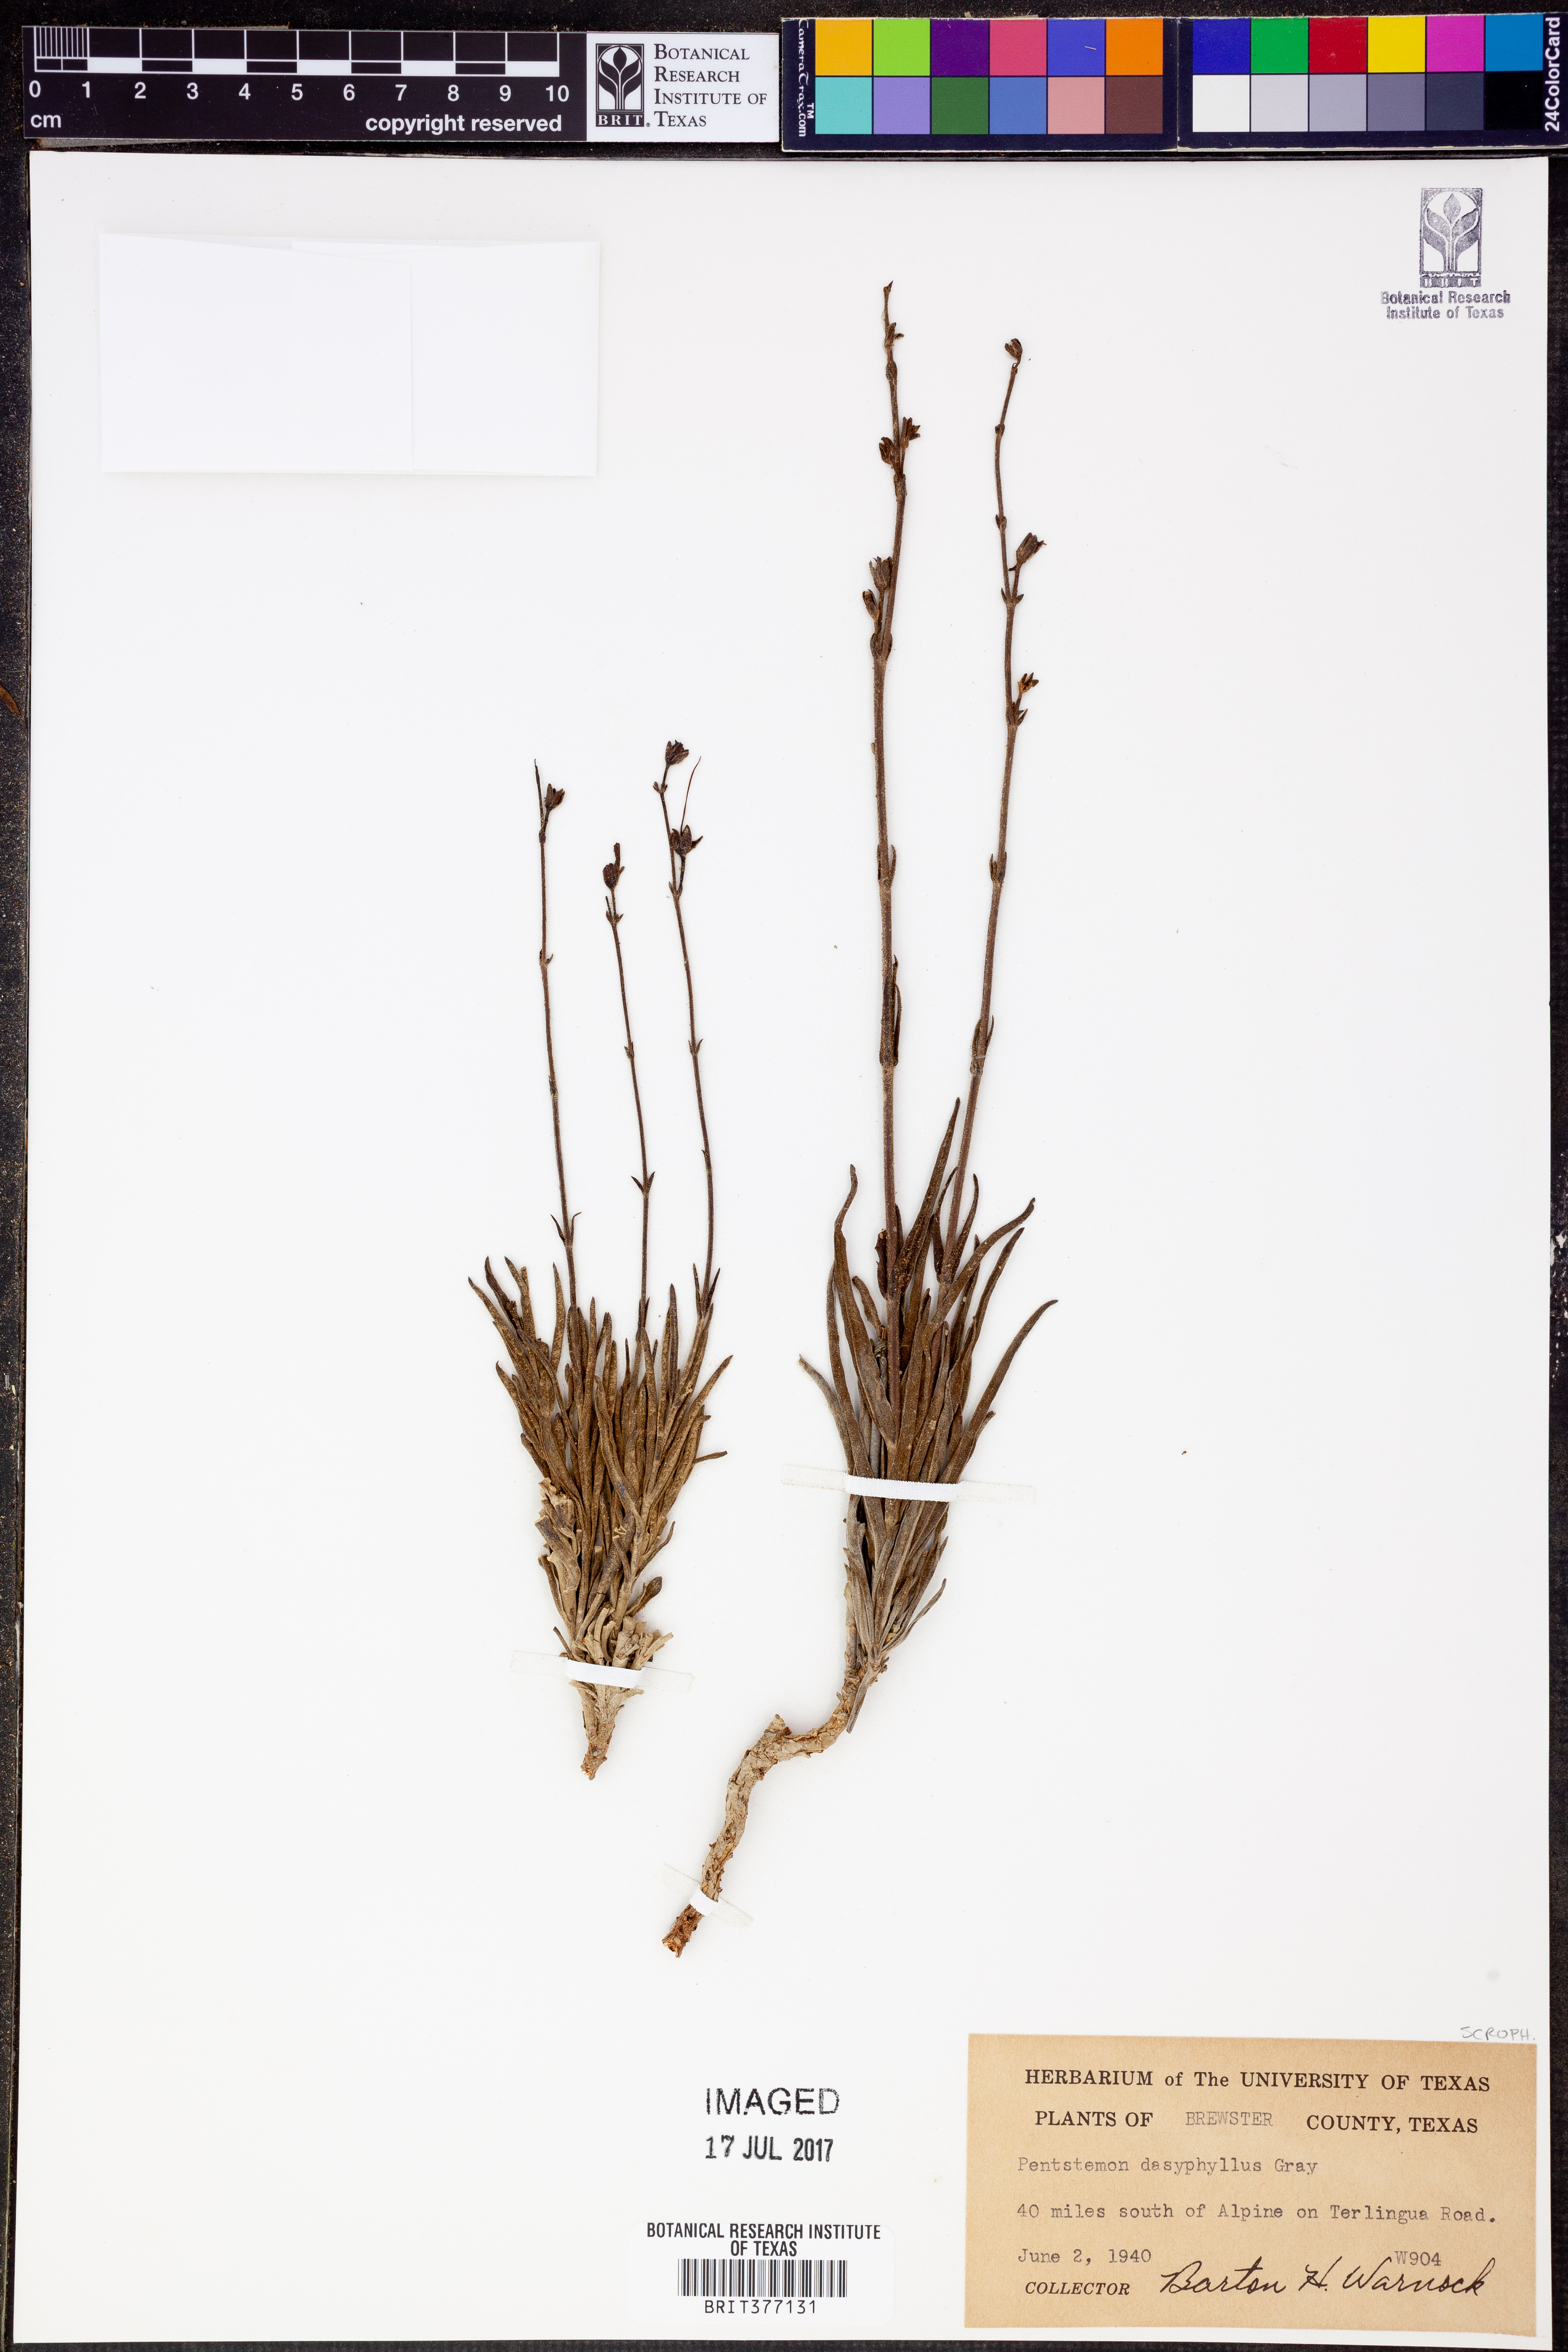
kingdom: Plantae
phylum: Tracheophyta
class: Magnoliopsida
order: Lamiales
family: Plantaginaceae
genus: Penstemon
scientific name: Penstemon dasyphyllus
